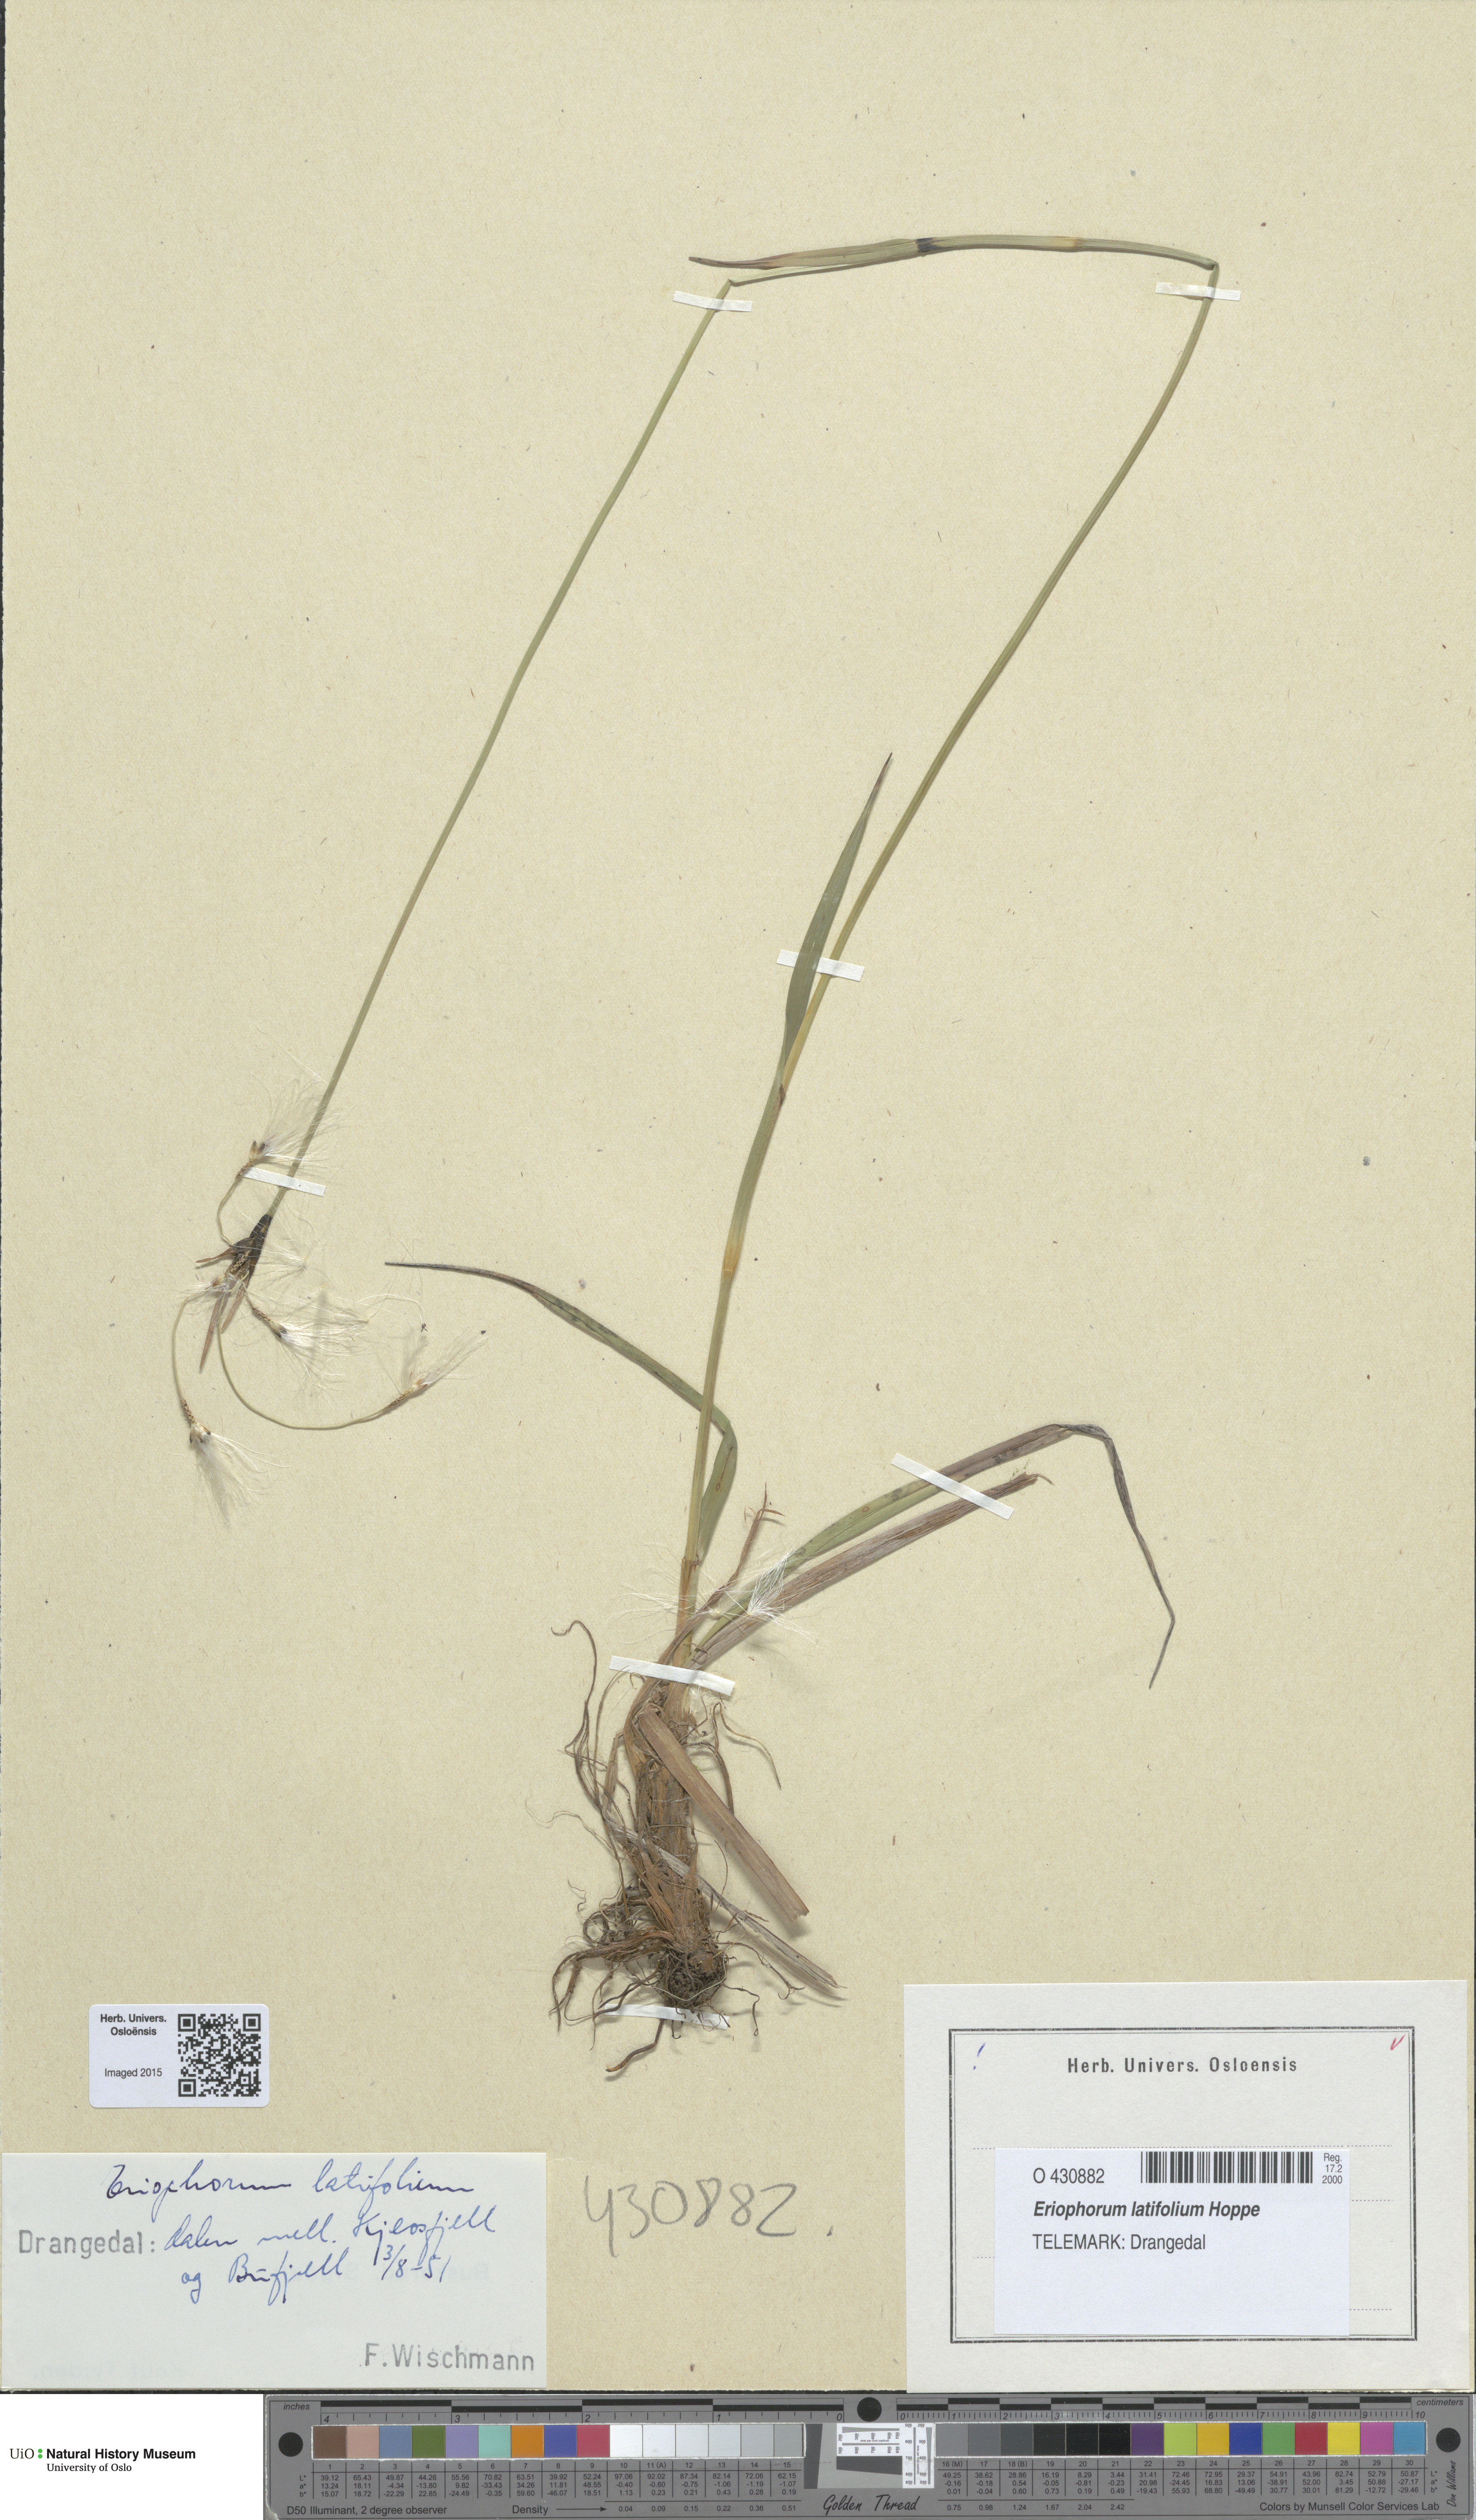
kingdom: Plantae
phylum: Tracheophyta
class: Liliopsida
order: Poales
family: Cyperaceae
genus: Eriophorum
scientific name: Eriophorum latifolium
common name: Broad-leaved cottongrass
